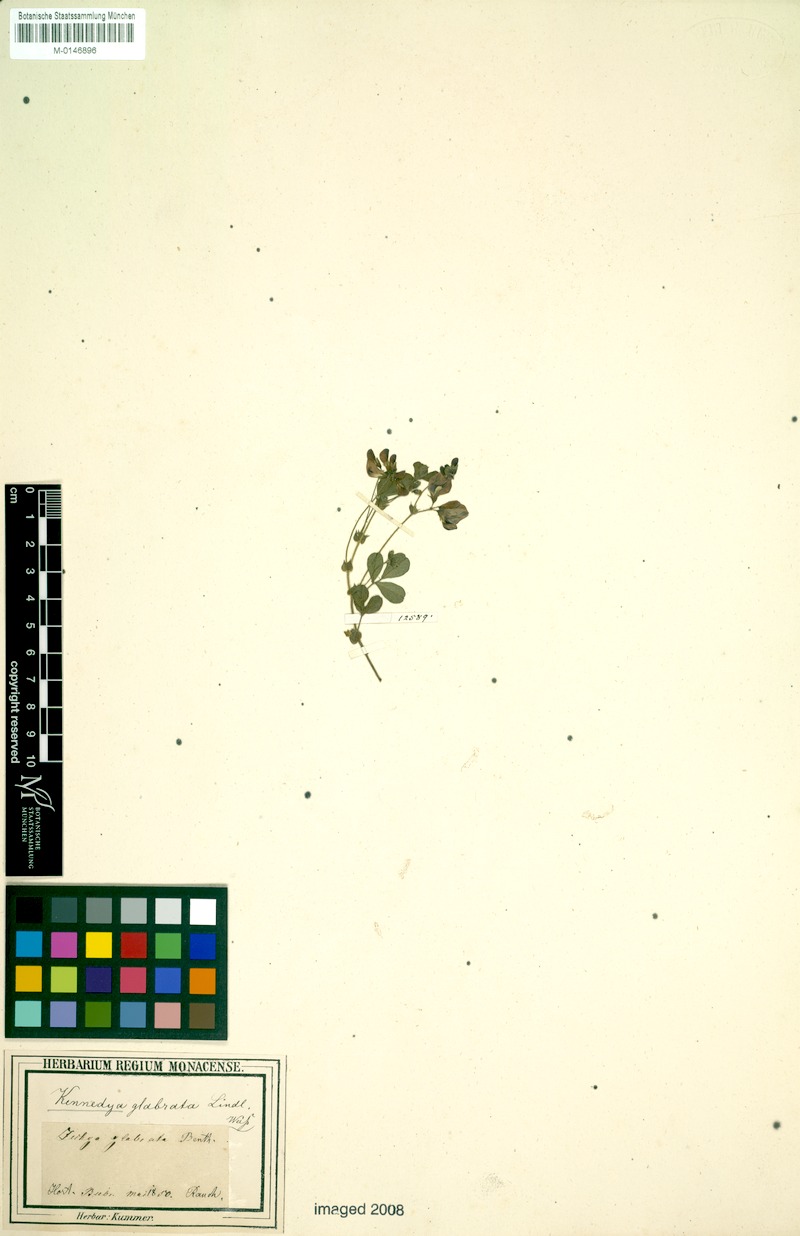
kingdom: Plantae
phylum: Tracheophyta
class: Magnoliopsida
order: Fabales
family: Fabaceae
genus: Kennedia
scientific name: Kennedia glabrata
